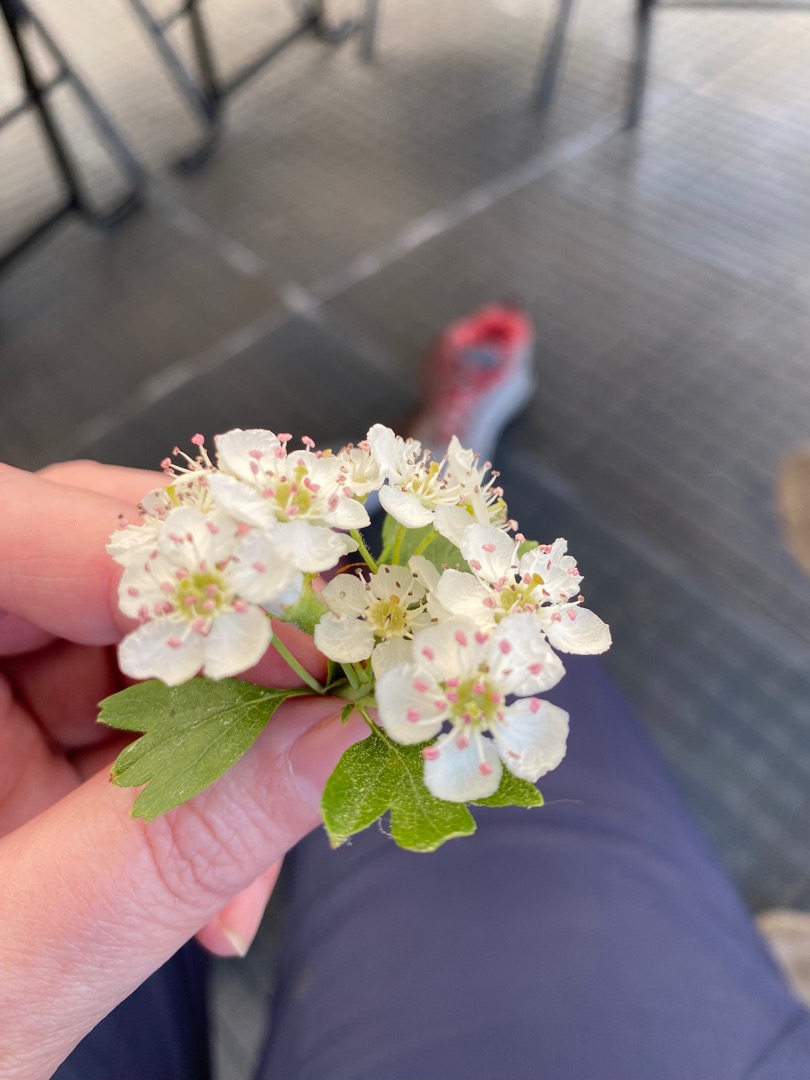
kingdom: Plantae
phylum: Tracheophyta
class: Magnoliopsida
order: Rosales
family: Rosaceae
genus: Crataegus
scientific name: Crataegus media
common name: Almindelig hvidtjørn × engriflet hvidtjørn
